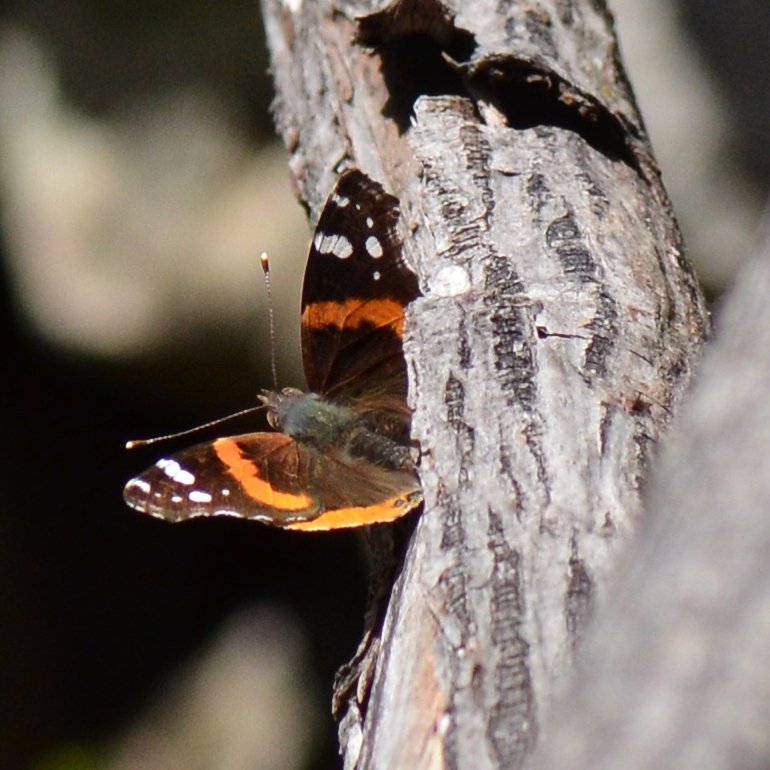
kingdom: Animalia
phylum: Arthropoda
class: Insecta
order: Lepidoptera
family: Nymphalidae
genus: Vanessa
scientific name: Vanessa atalanta
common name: Red Admiral
